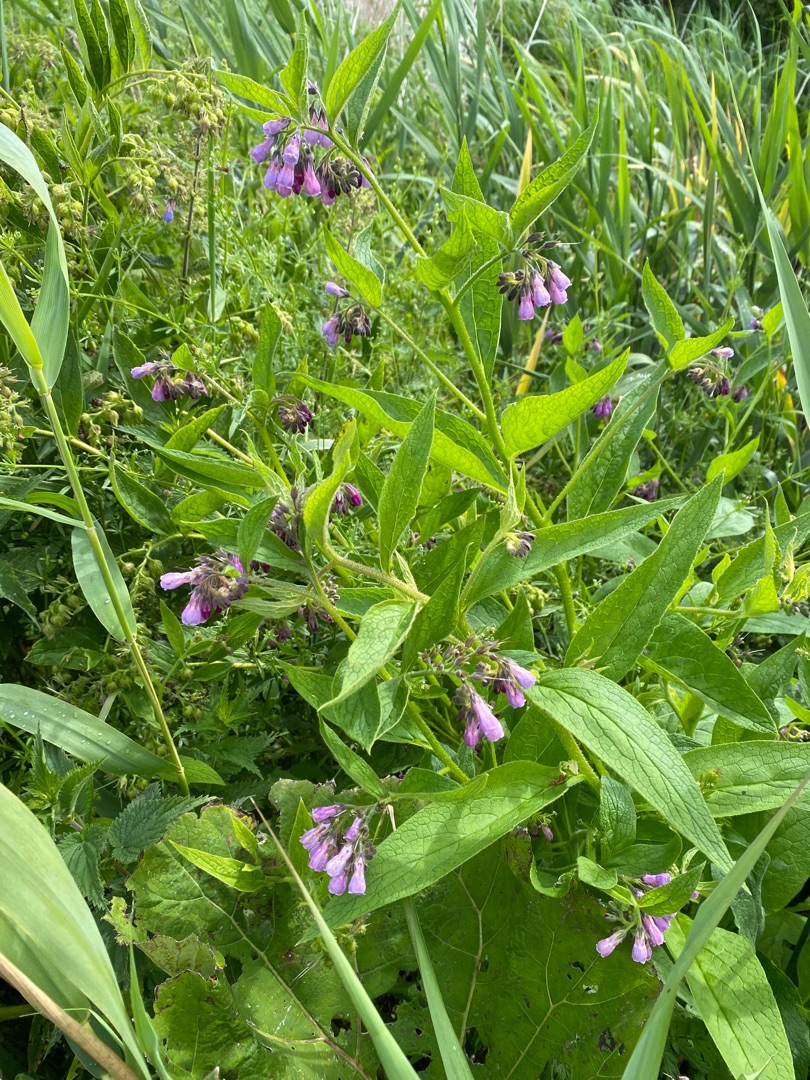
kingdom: Plantae
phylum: Tracheophyta
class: Magnoliopsida
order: Boraginales
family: Boraginaceae
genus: Symphytum
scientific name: Symphytum uplandicum
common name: Foder-kulsukker
